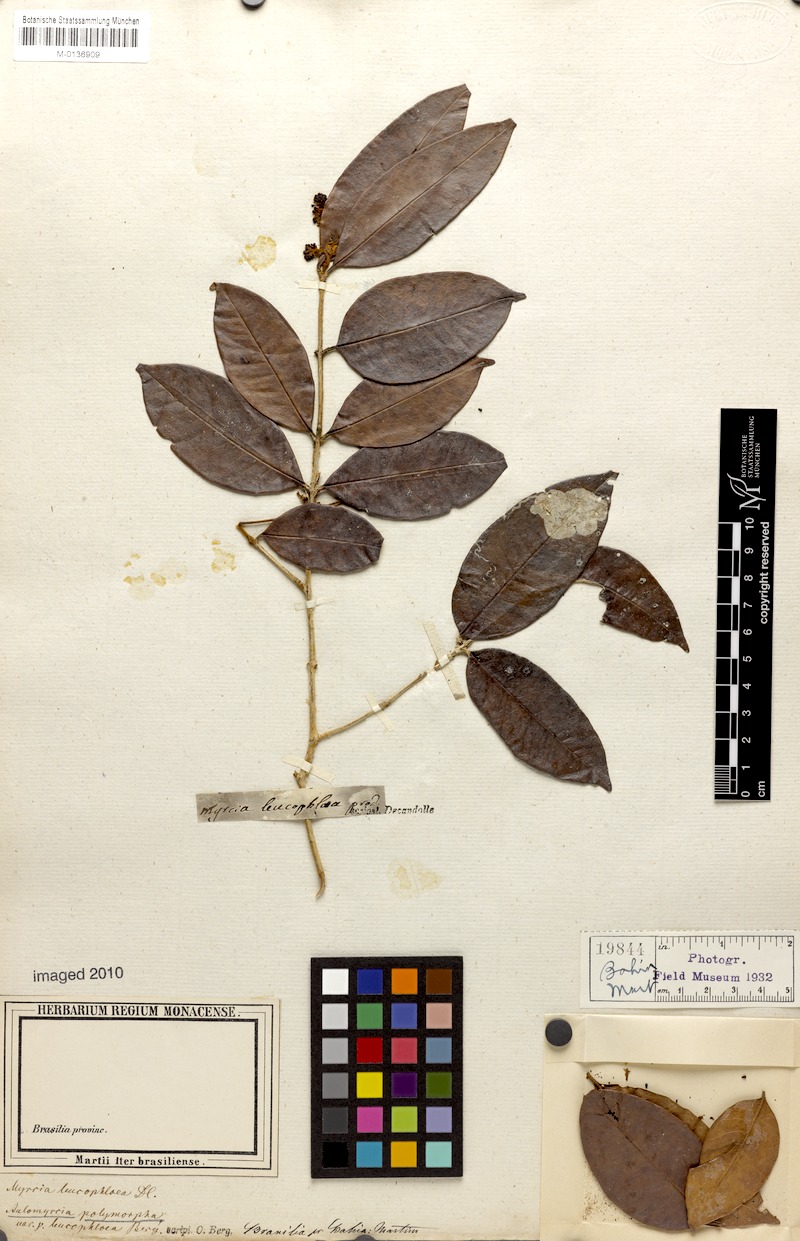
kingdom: Plantae
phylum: Tracheophyta
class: Magnoliopsida
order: Myrtales
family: Myrtaceae
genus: Myrcia
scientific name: Myrcia decorticans
